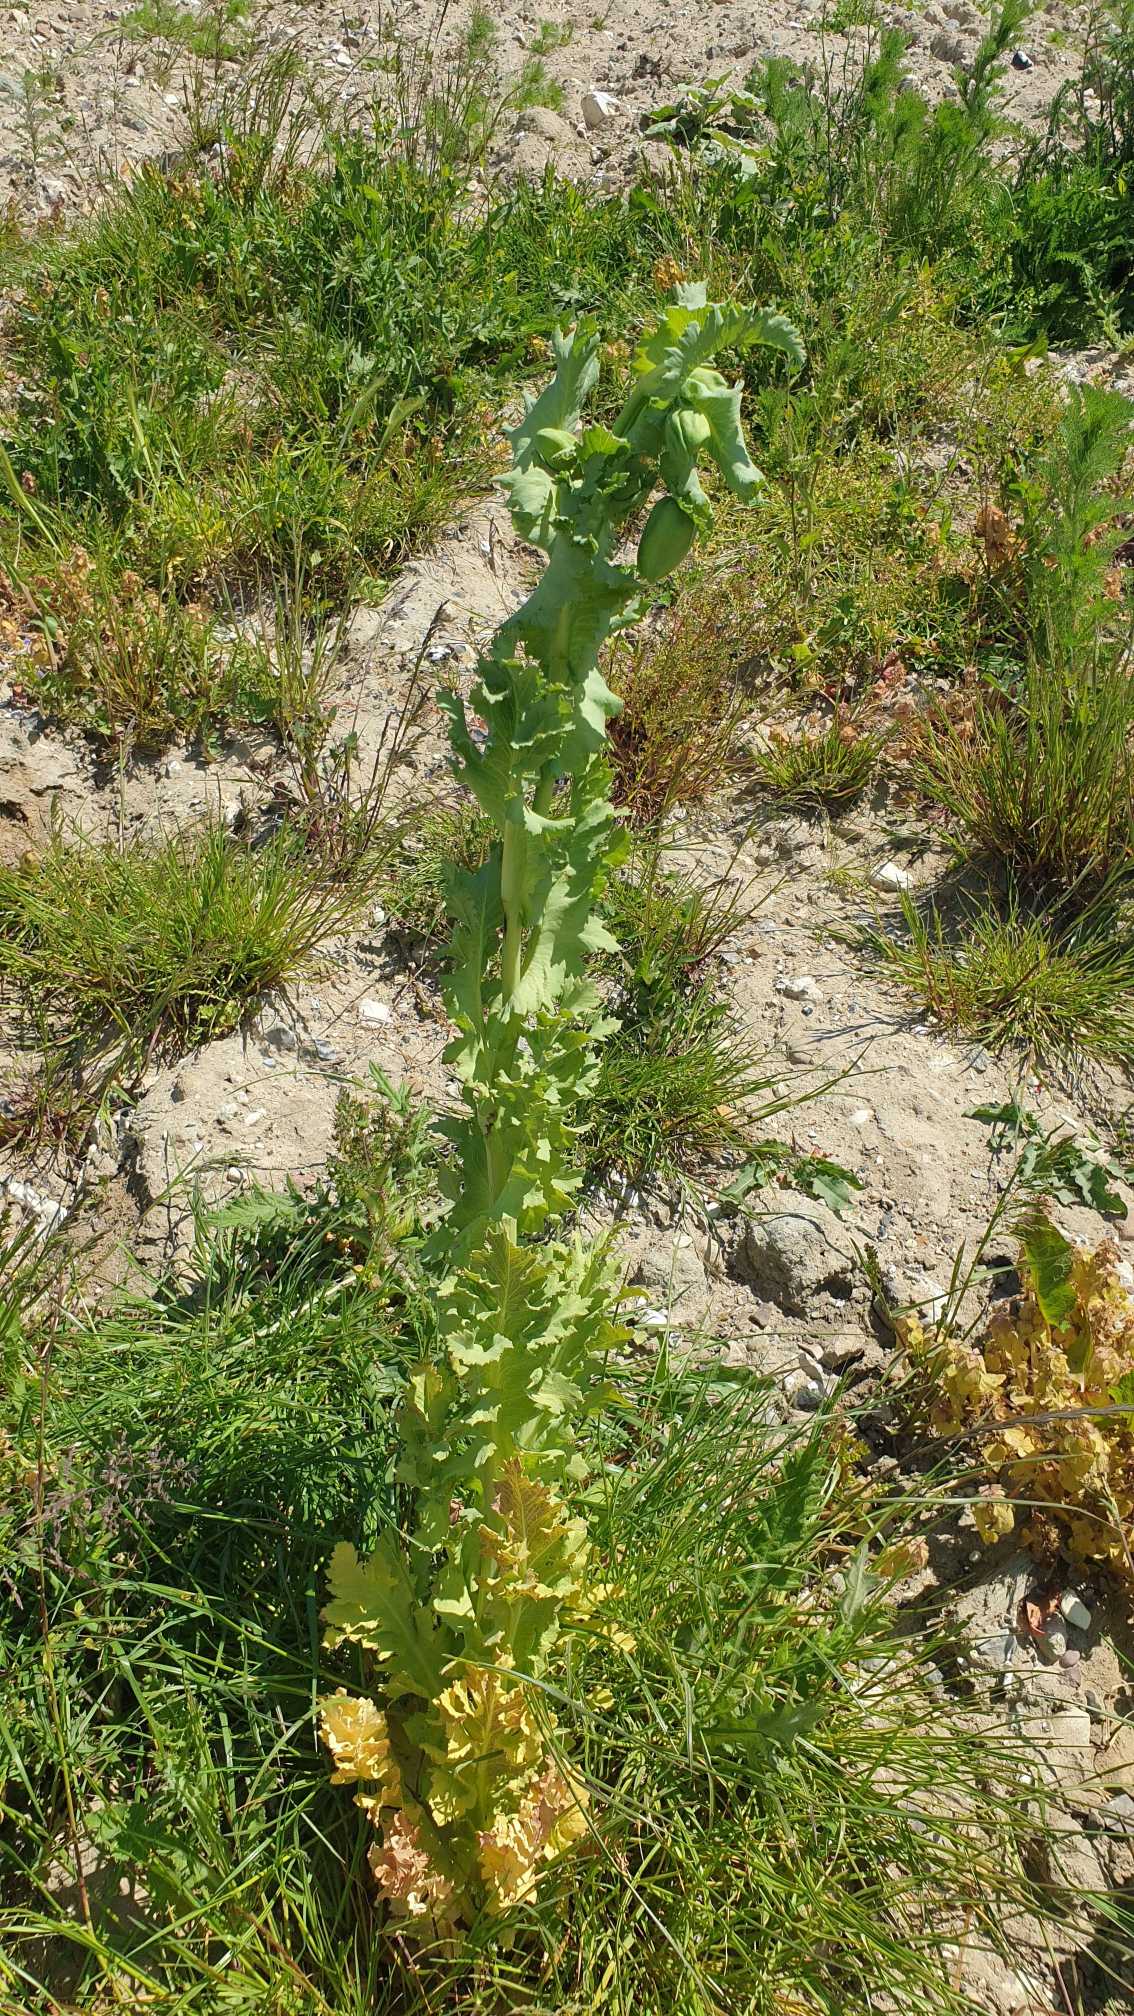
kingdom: Plantae
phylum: Tracheophyta
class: Magnoliopsida
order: Ranunculales
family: Papaveraceae
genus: Papaver
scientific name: Papaver somniferum
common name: Opium-valmue
